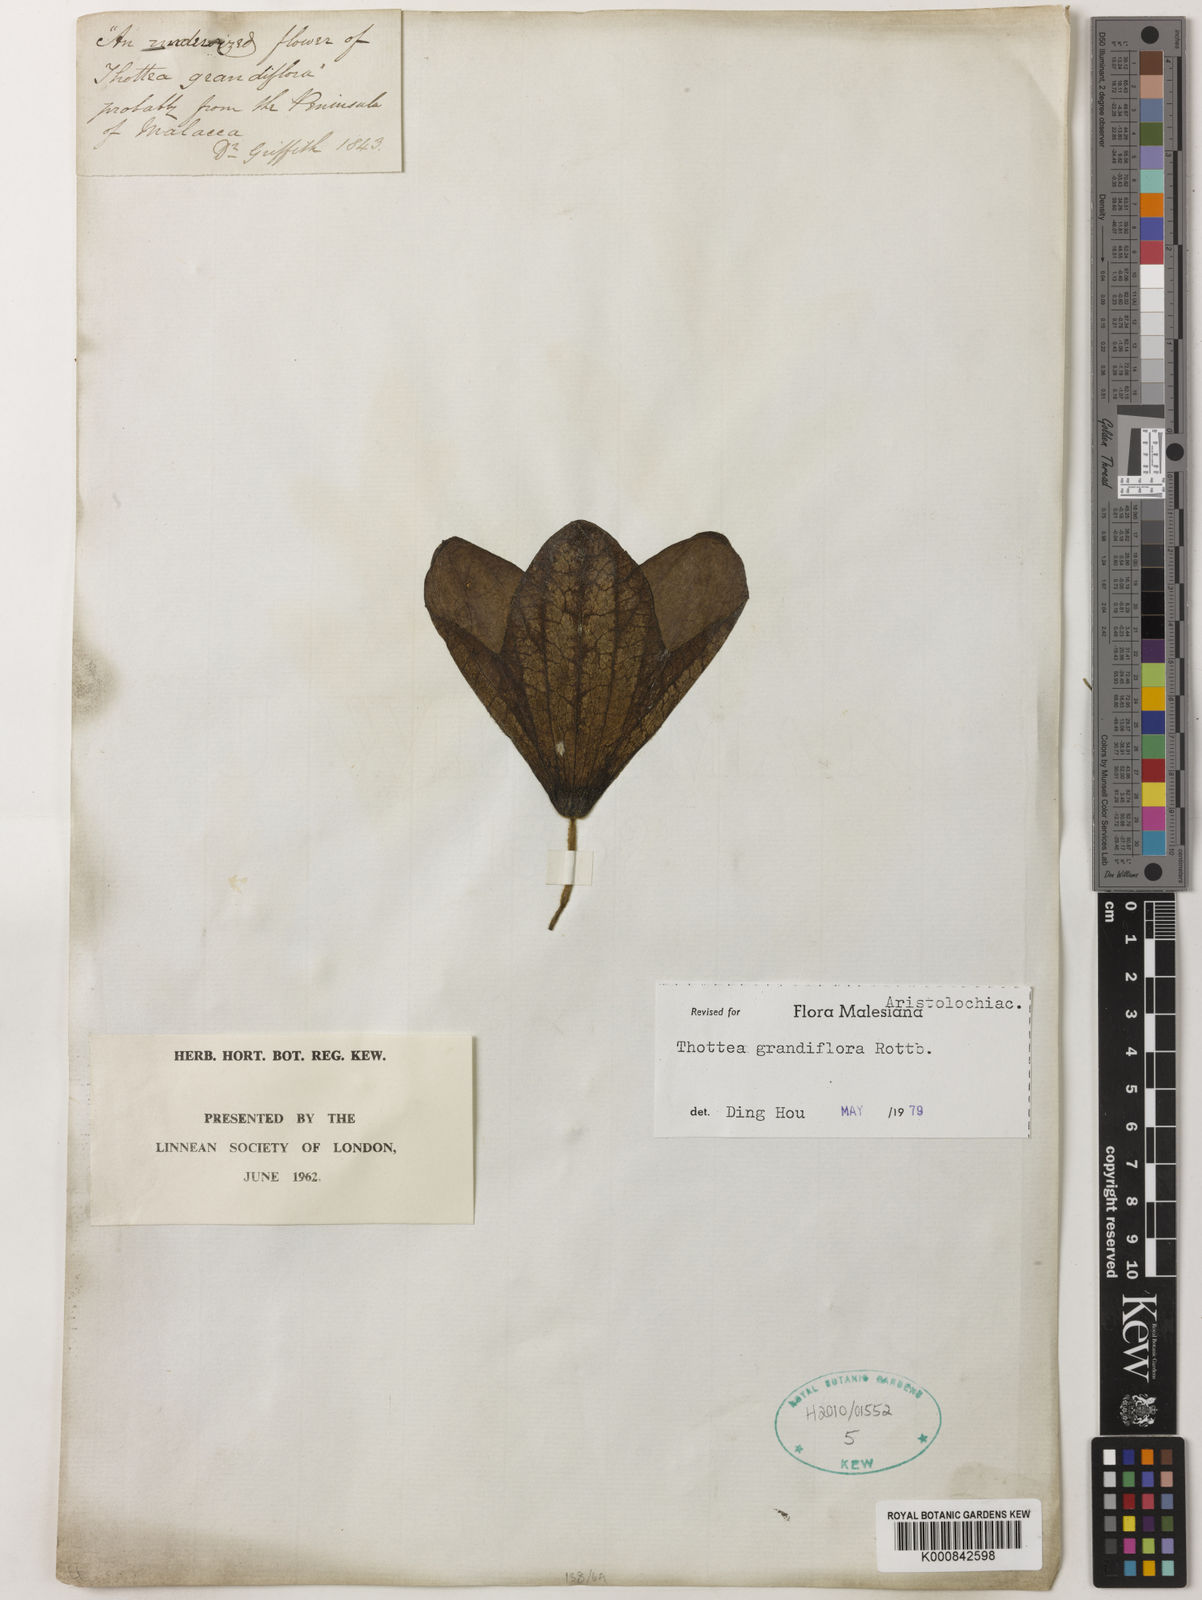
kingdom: Plantae
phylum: Tracheophyta
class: Magnoliopsida
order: Piperales
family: Aristolochiaceae
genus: Thottea
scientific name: Thottea grandiflora
